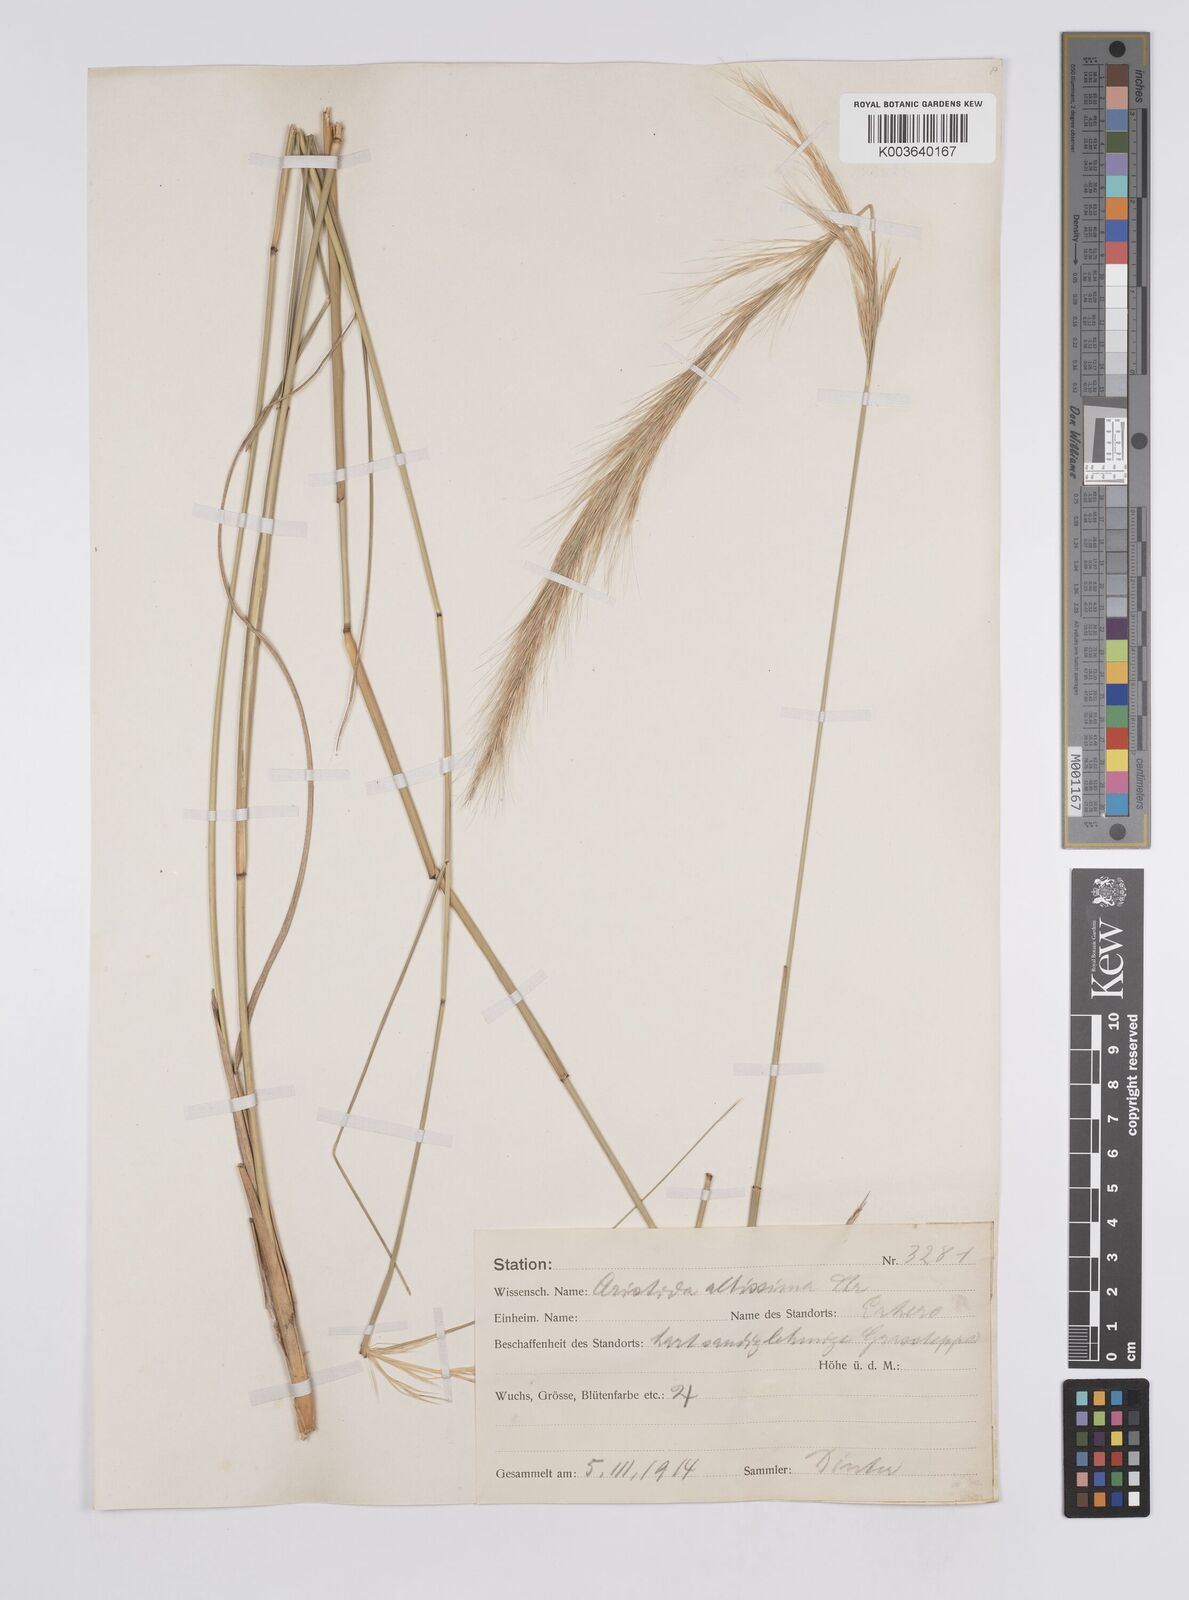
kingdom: Plantae
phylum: Tracheophyta
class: Liliopsida
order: Poales
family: Poaceae
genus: Aristida
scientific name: Aristida pilgeri
